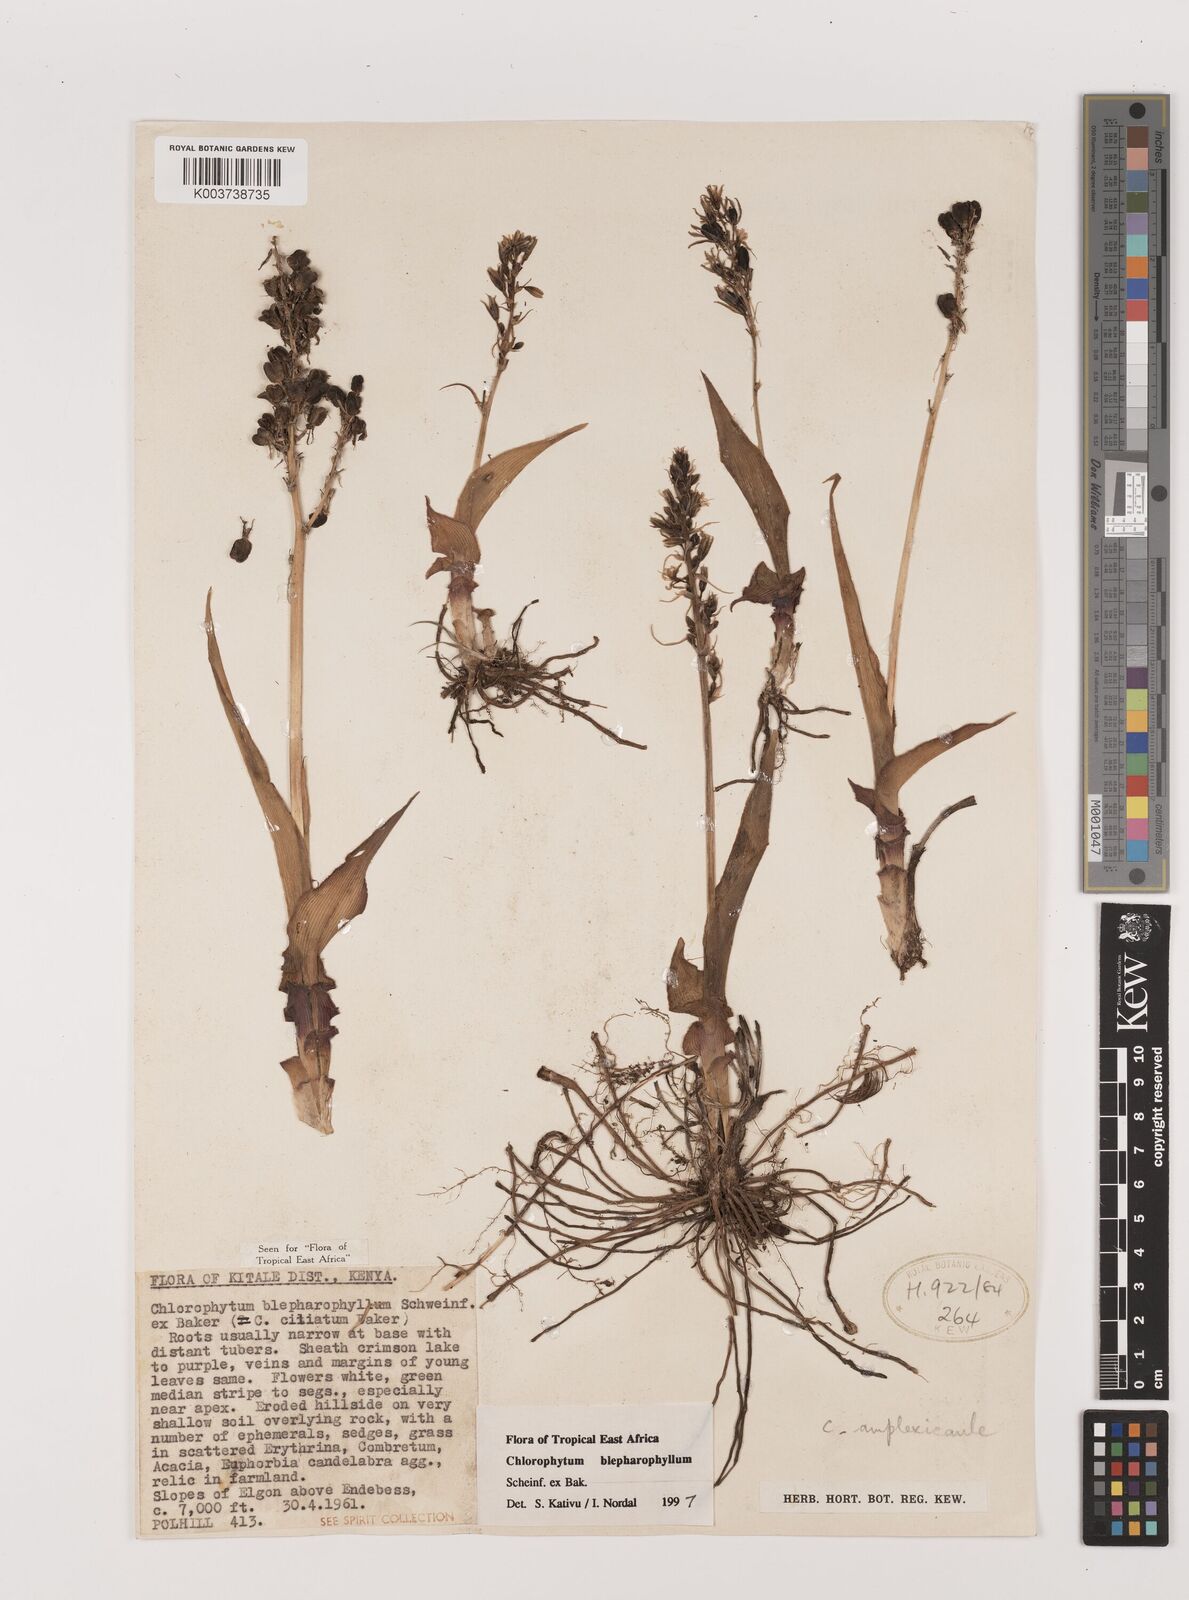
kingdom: Plantae
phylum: Tracheophyta
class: Liliopsida
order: Asparagales
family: Asparagaceae
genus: Chlorophytum
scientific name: Chlorophytum blepharophyllum
